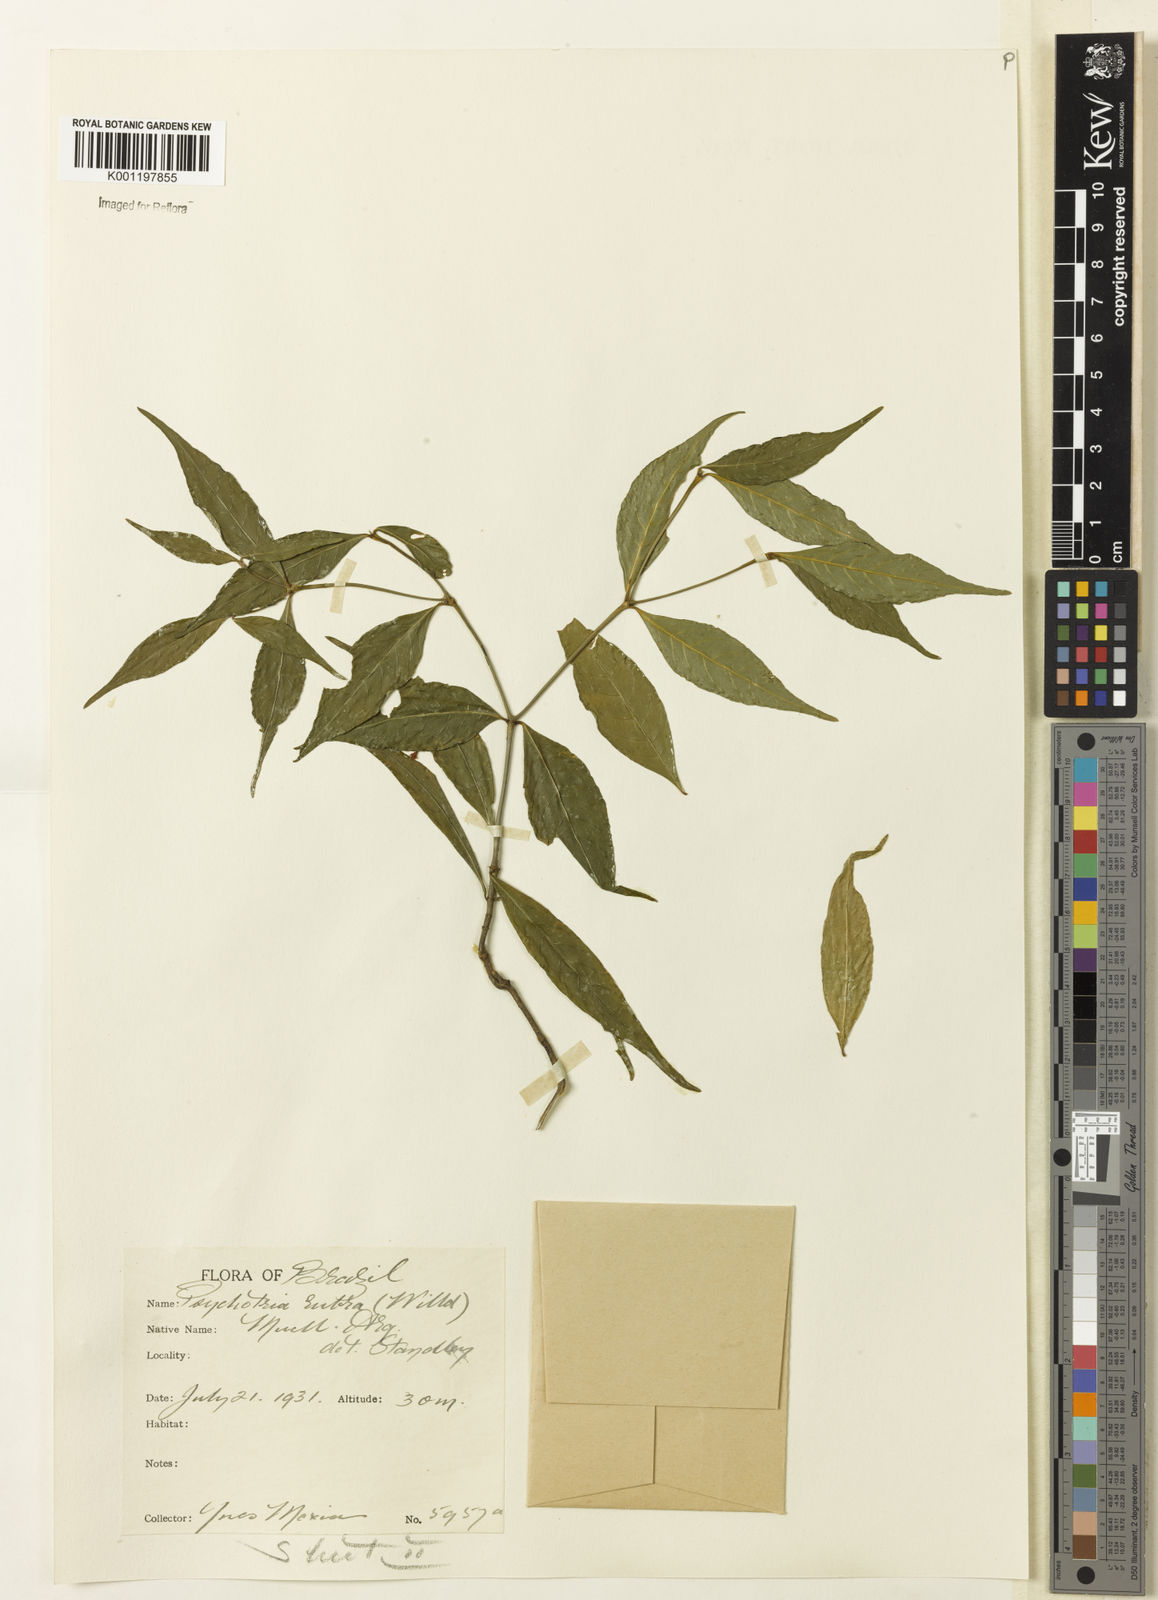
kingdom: Plantae
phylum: Tracheophyta
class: Magnoliopsida
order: Gentianales
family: Rubiaceae
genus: Psychotria
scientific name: Psychotria
